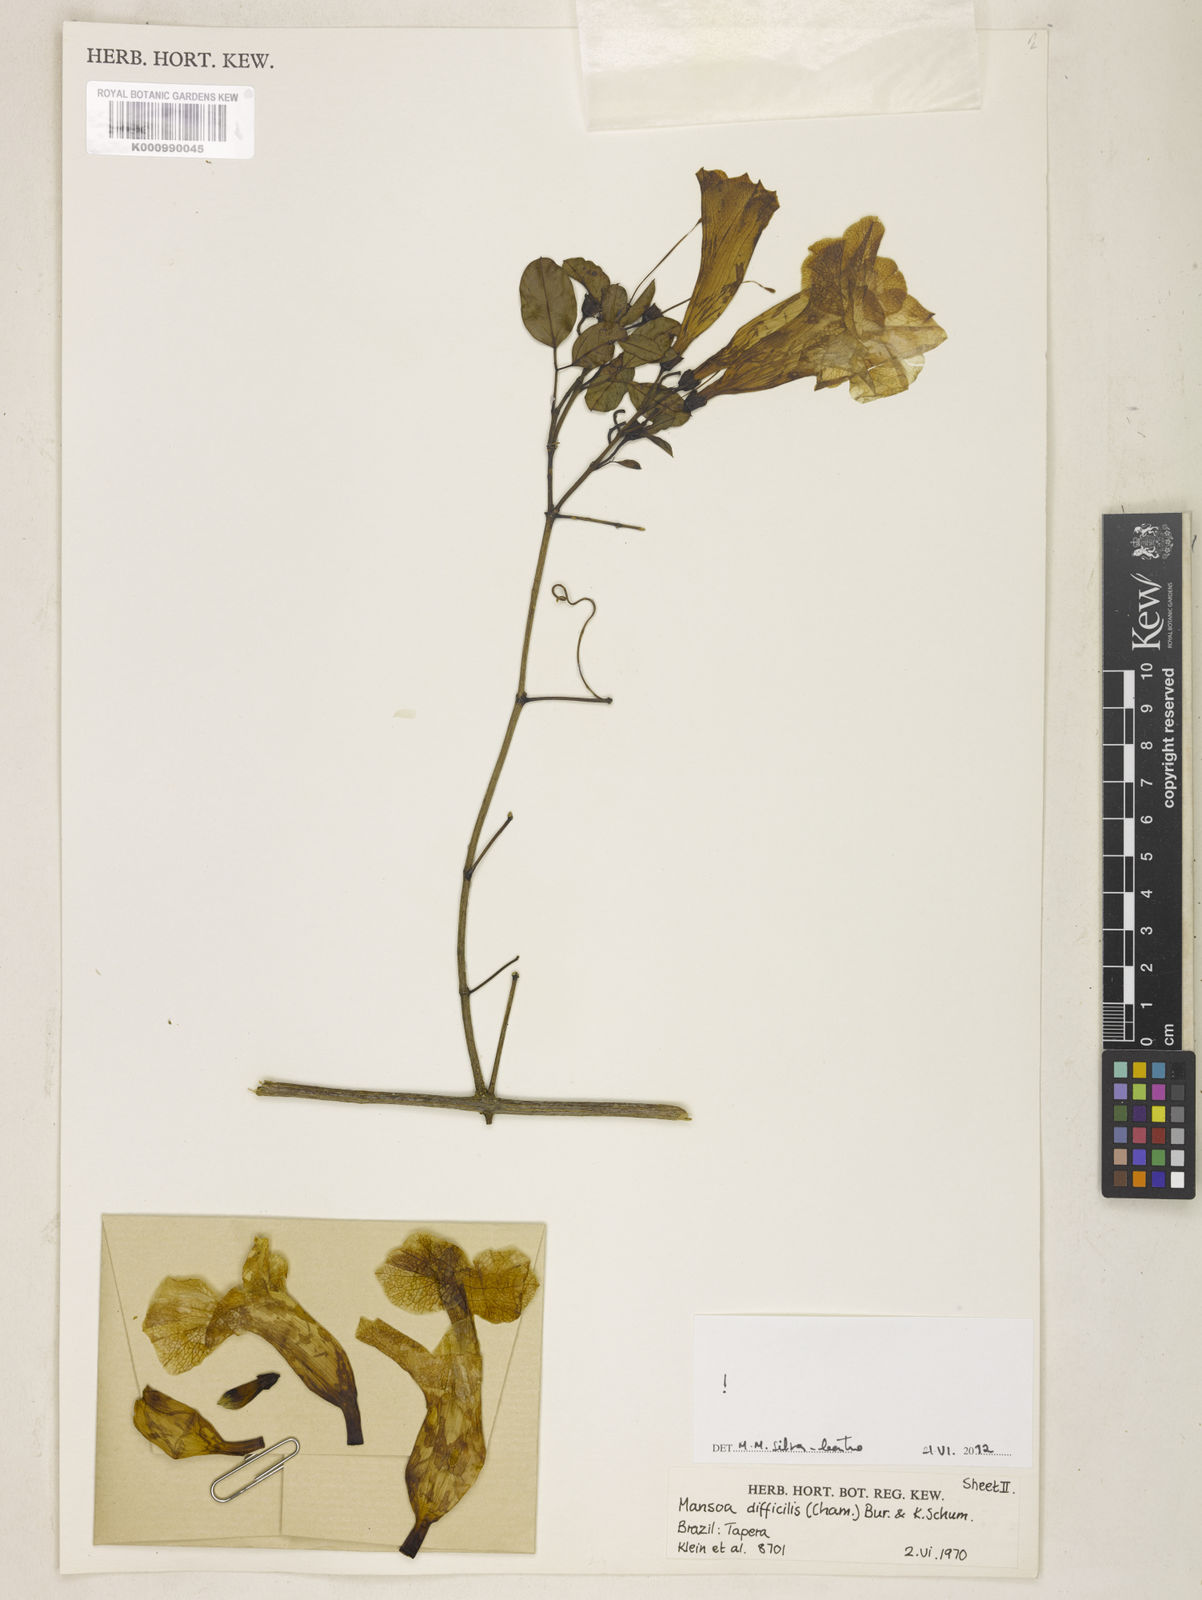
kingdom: Plantae
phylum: Tracheophyta
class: Magnoliopsida
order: Lamiales
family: Bignoniaceae
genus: Mansoa
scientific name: Mansoa difficilis
